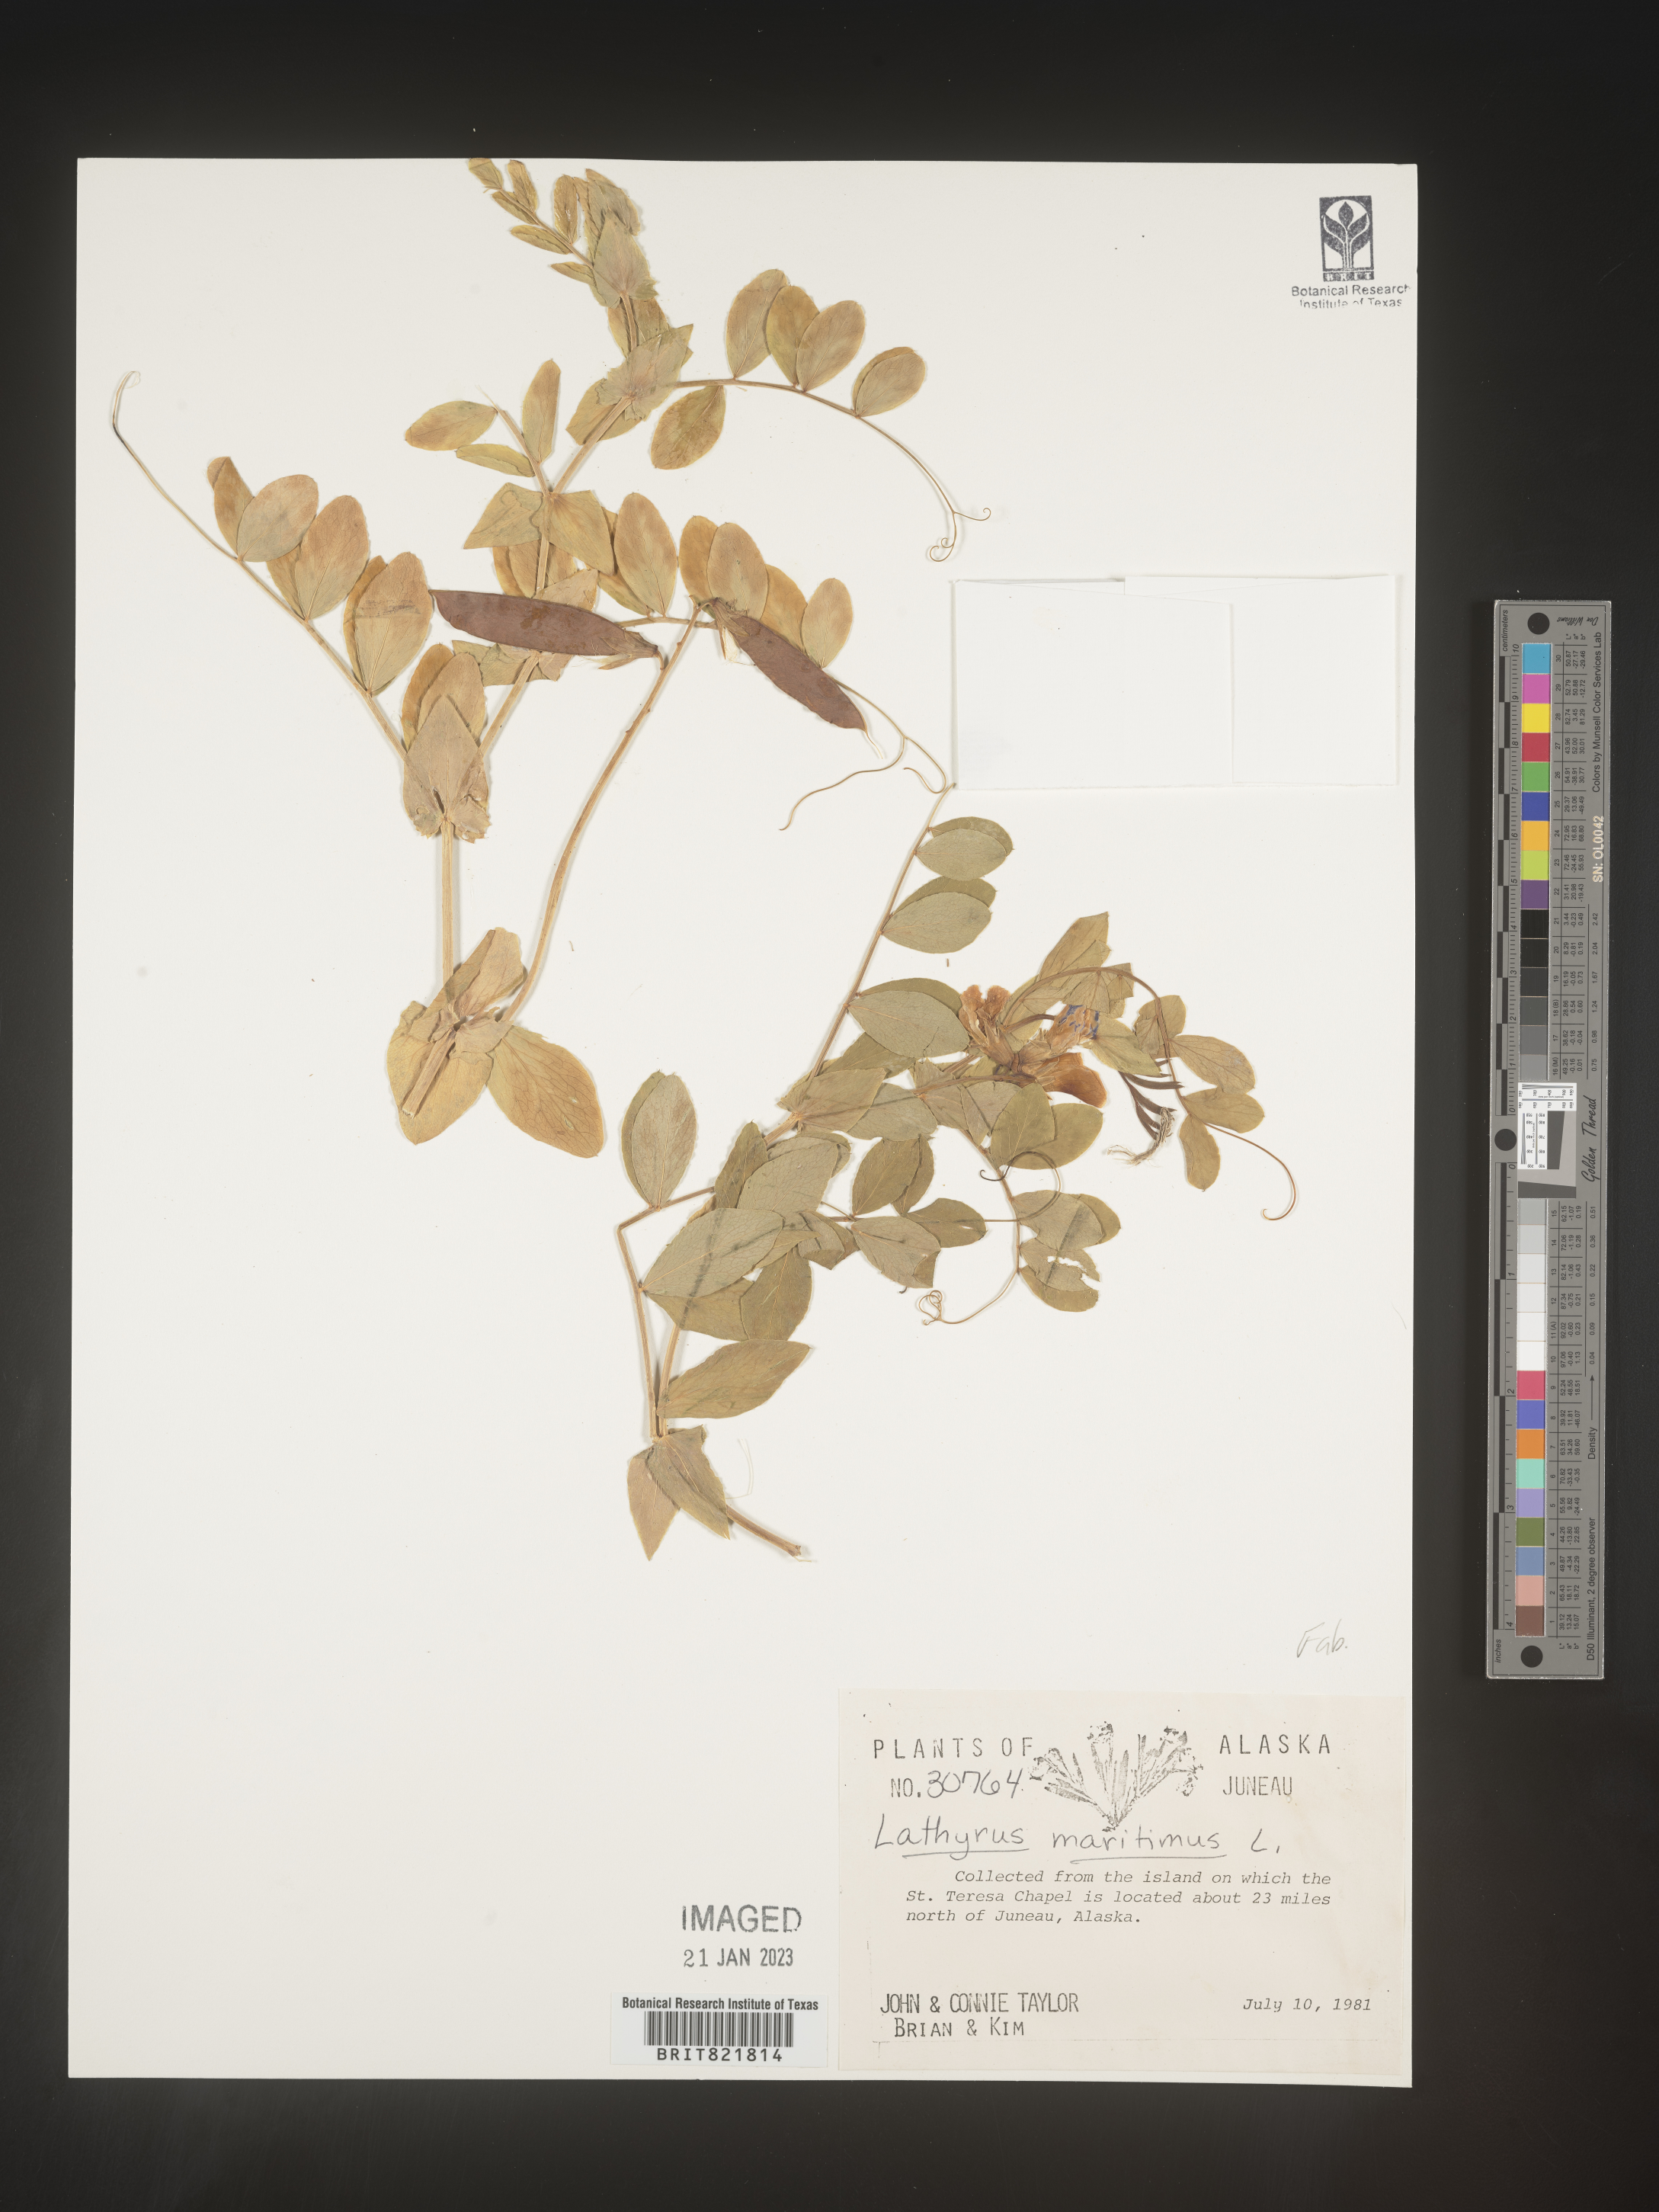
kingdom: Plantae
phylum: Tracheophyta
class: Magnoliopsida
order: Fabales
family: Fabaceae
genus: Lathyrus
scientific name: Lathyrus japonicus
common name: Sea pea
